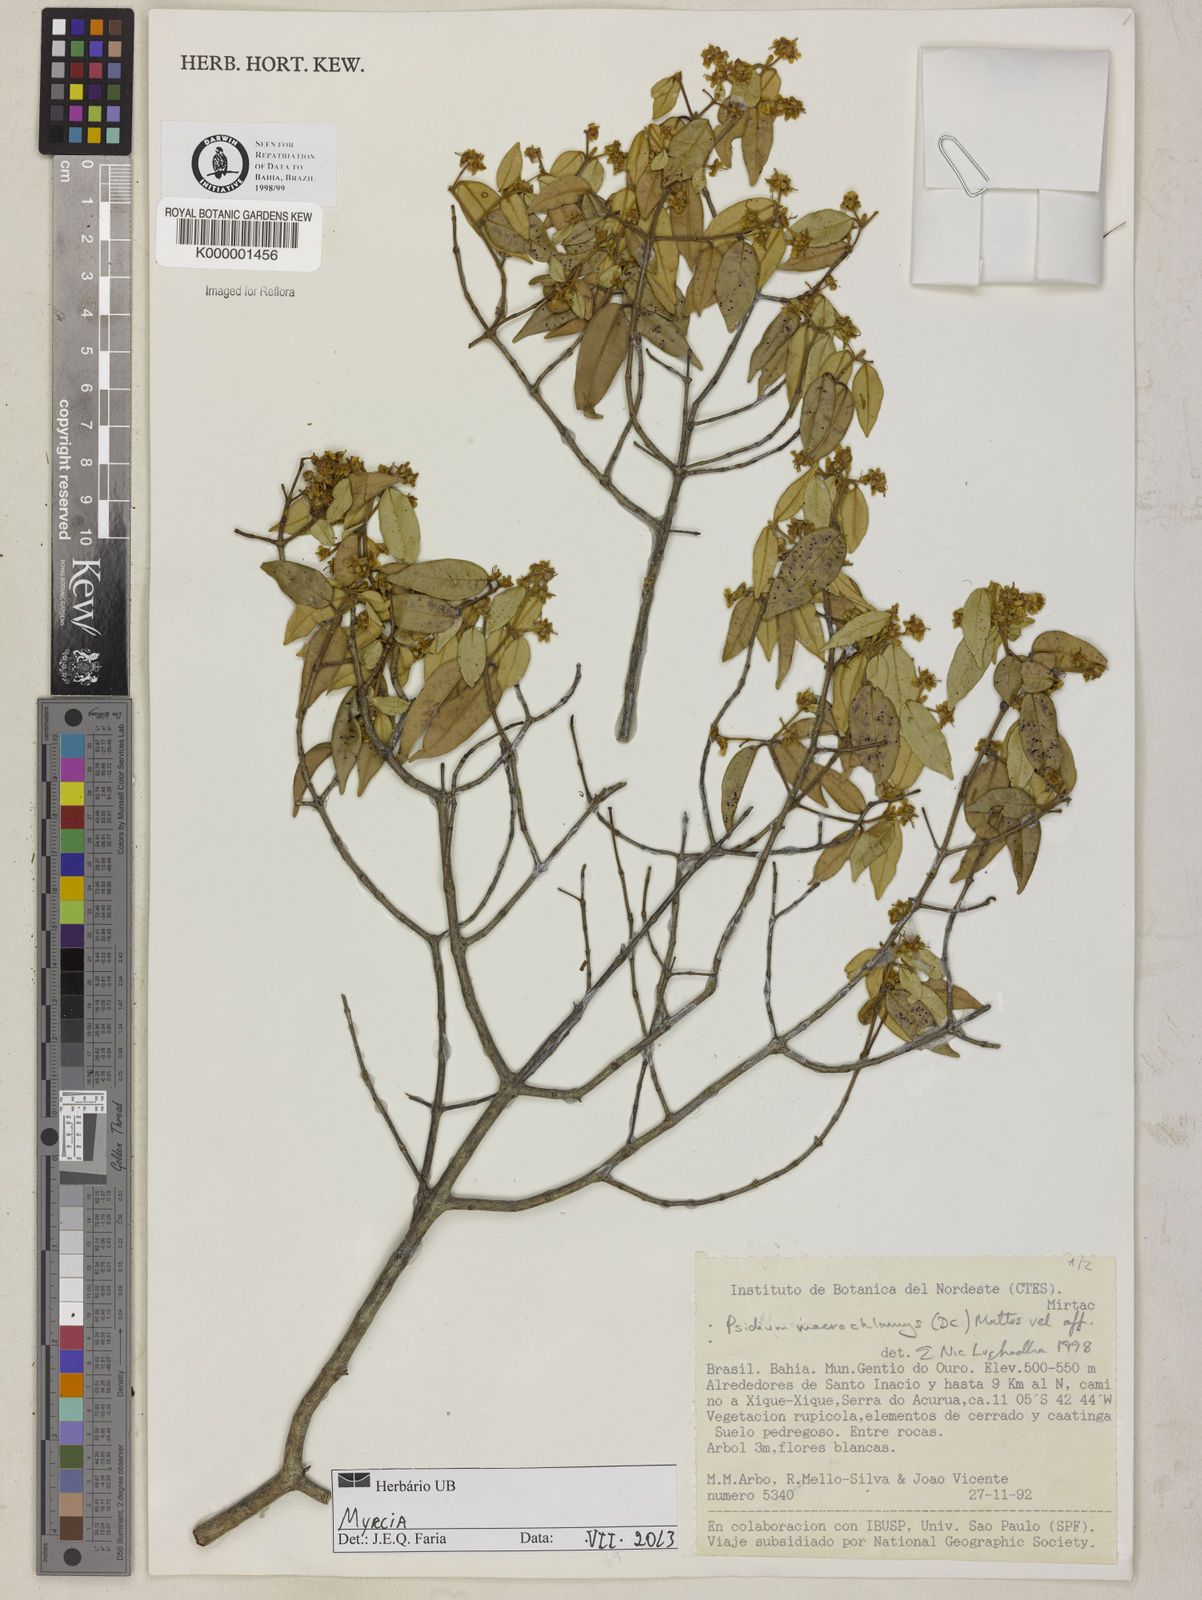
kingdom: Plantae
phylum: Tracheophyta
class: Magnoliopsida
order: Myrtales
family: Myrtaceae
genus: Algrizea
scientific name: Algrizea macrochlamys
